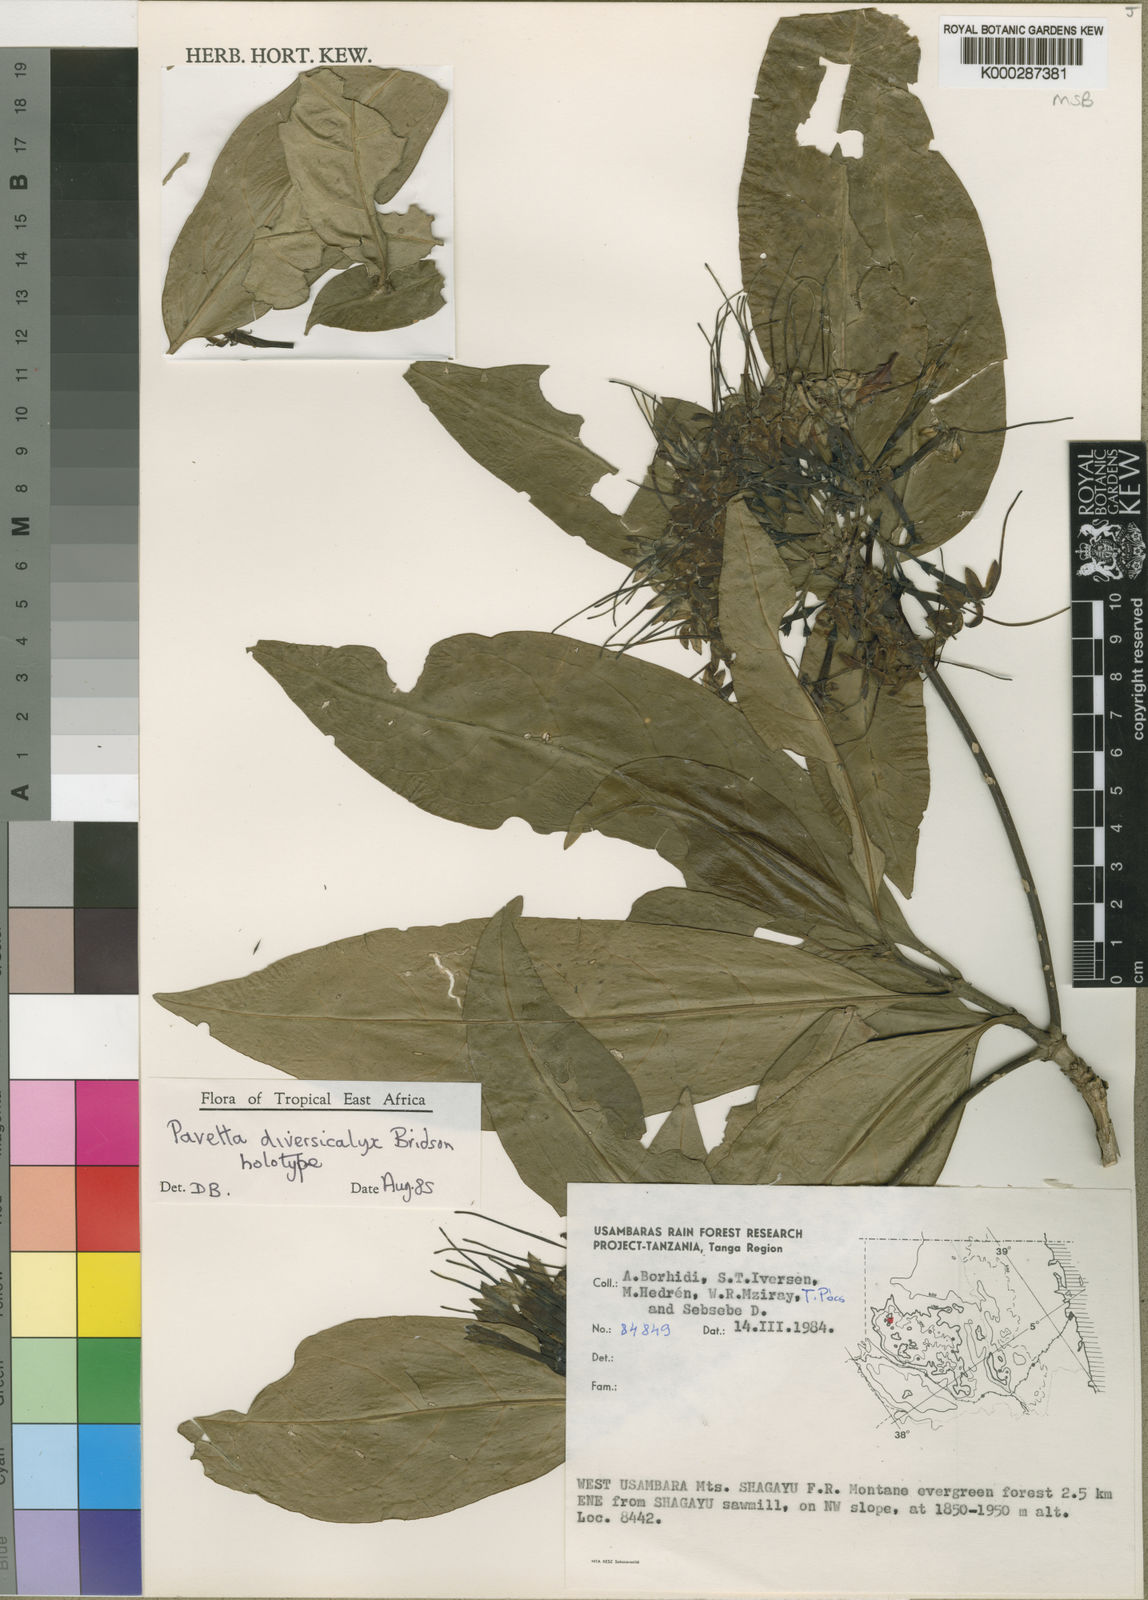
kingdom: Plantae
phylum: Tracheophyta
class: Magnoliopsida
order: Gentianales
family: Rubiaceae
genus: Pavetta
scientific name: Pavetta diversicalyx
